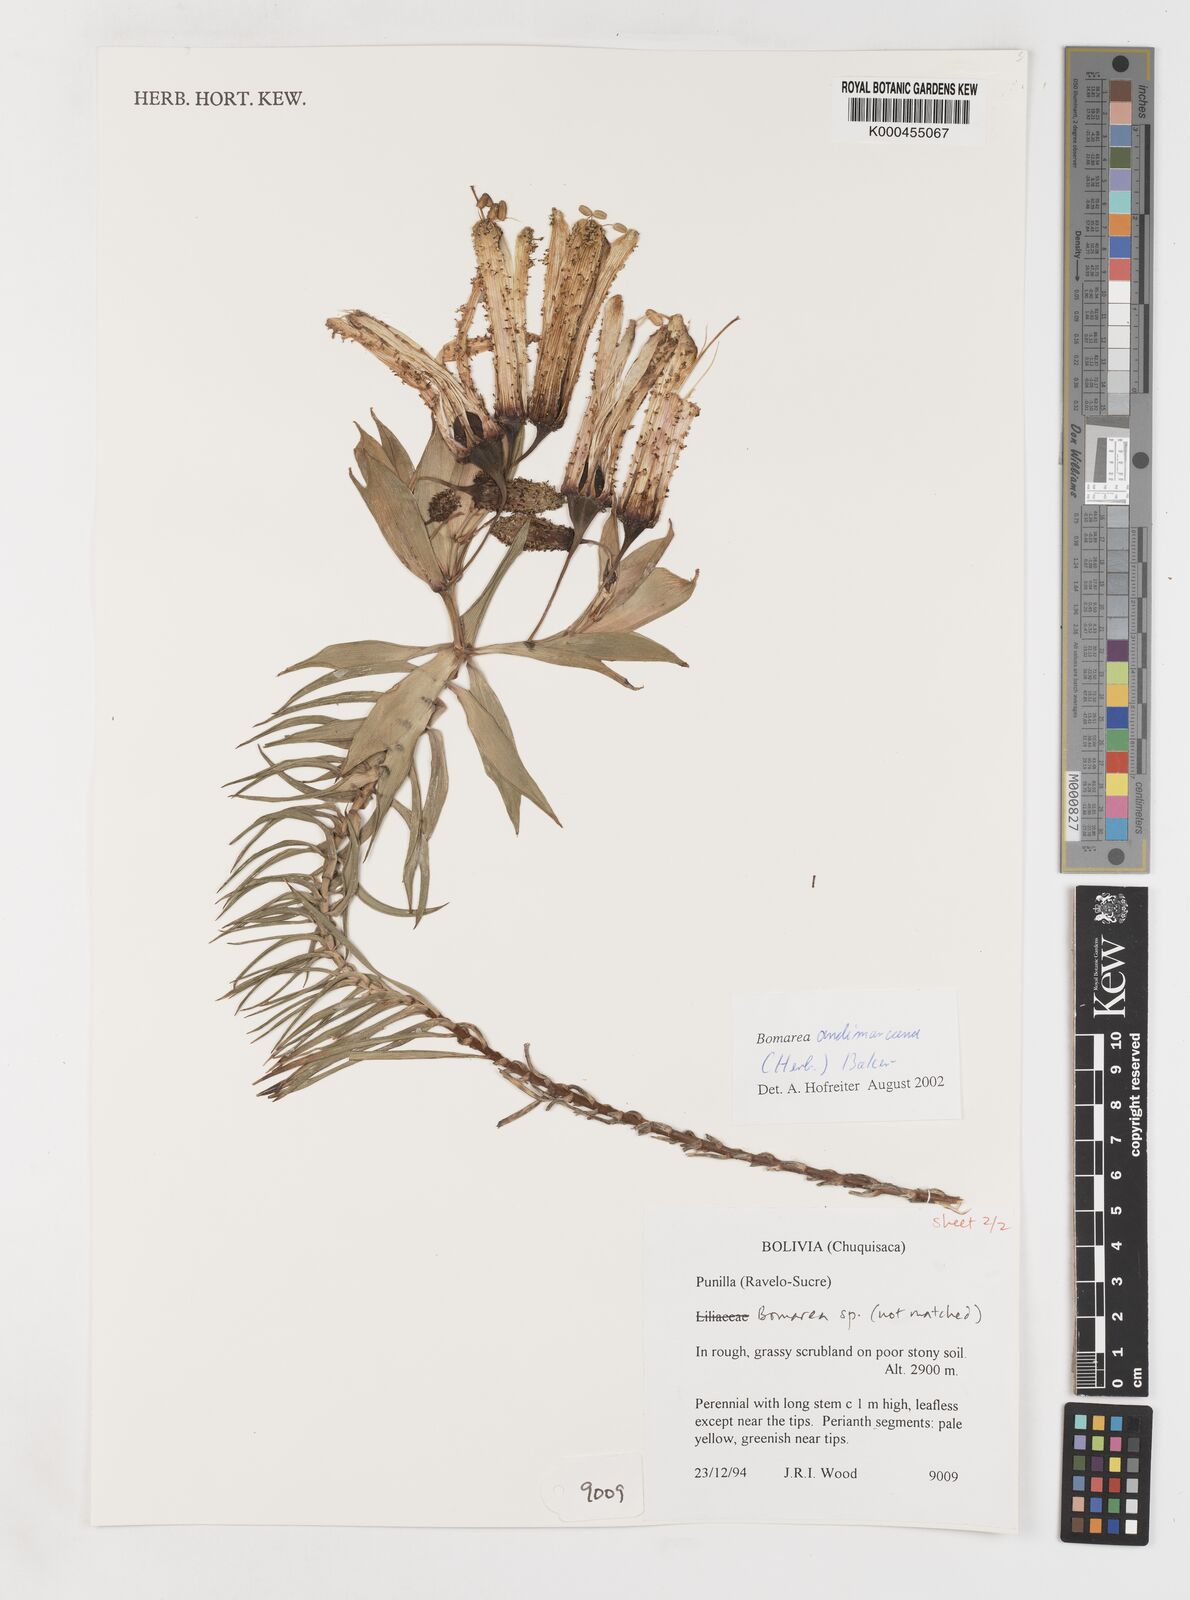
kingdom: Plantae
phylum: Tracheophyta
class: Liliopsida
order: Liliales
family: Alstroemeriaceae
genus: Bomarea
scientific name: Bomarea andimarcana
